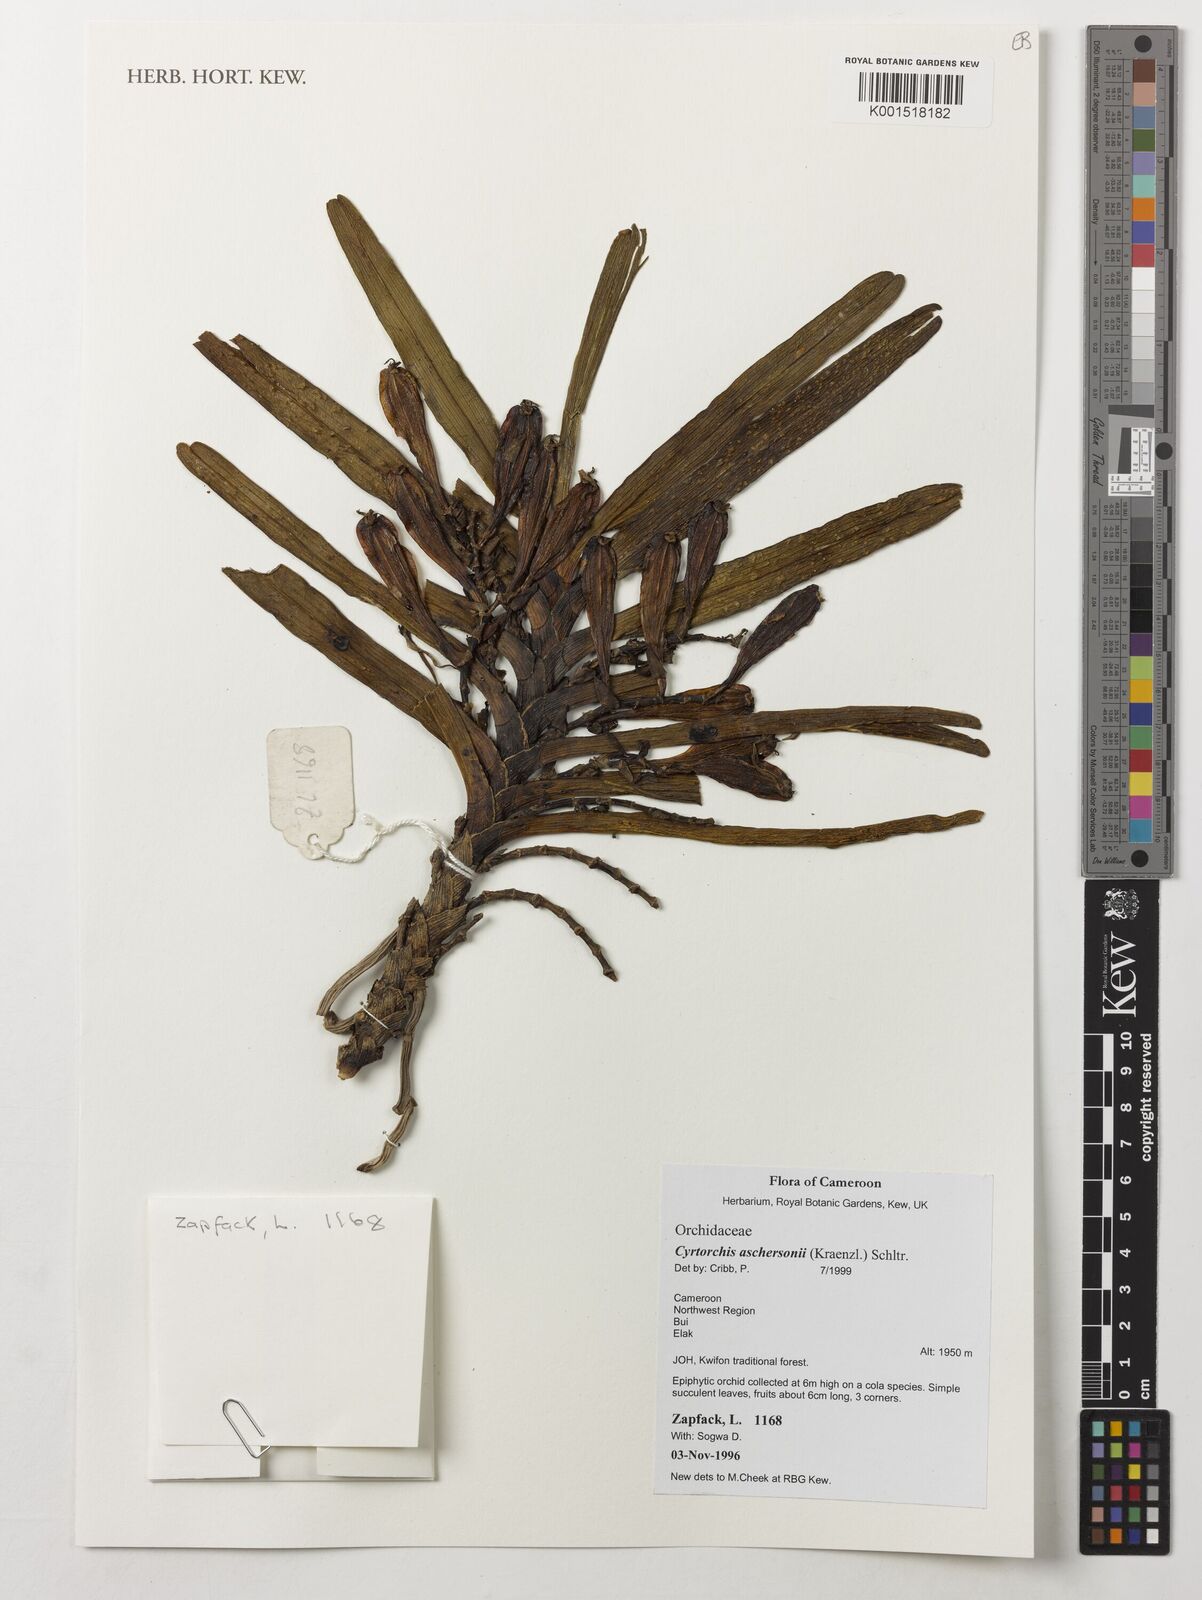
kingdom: Plantae
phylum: Tracheophyta
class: Liliopsida
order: Asparagales
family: Orchidaceae
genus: Cyrtorchis
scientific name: Cyrtorchis aschersonii
